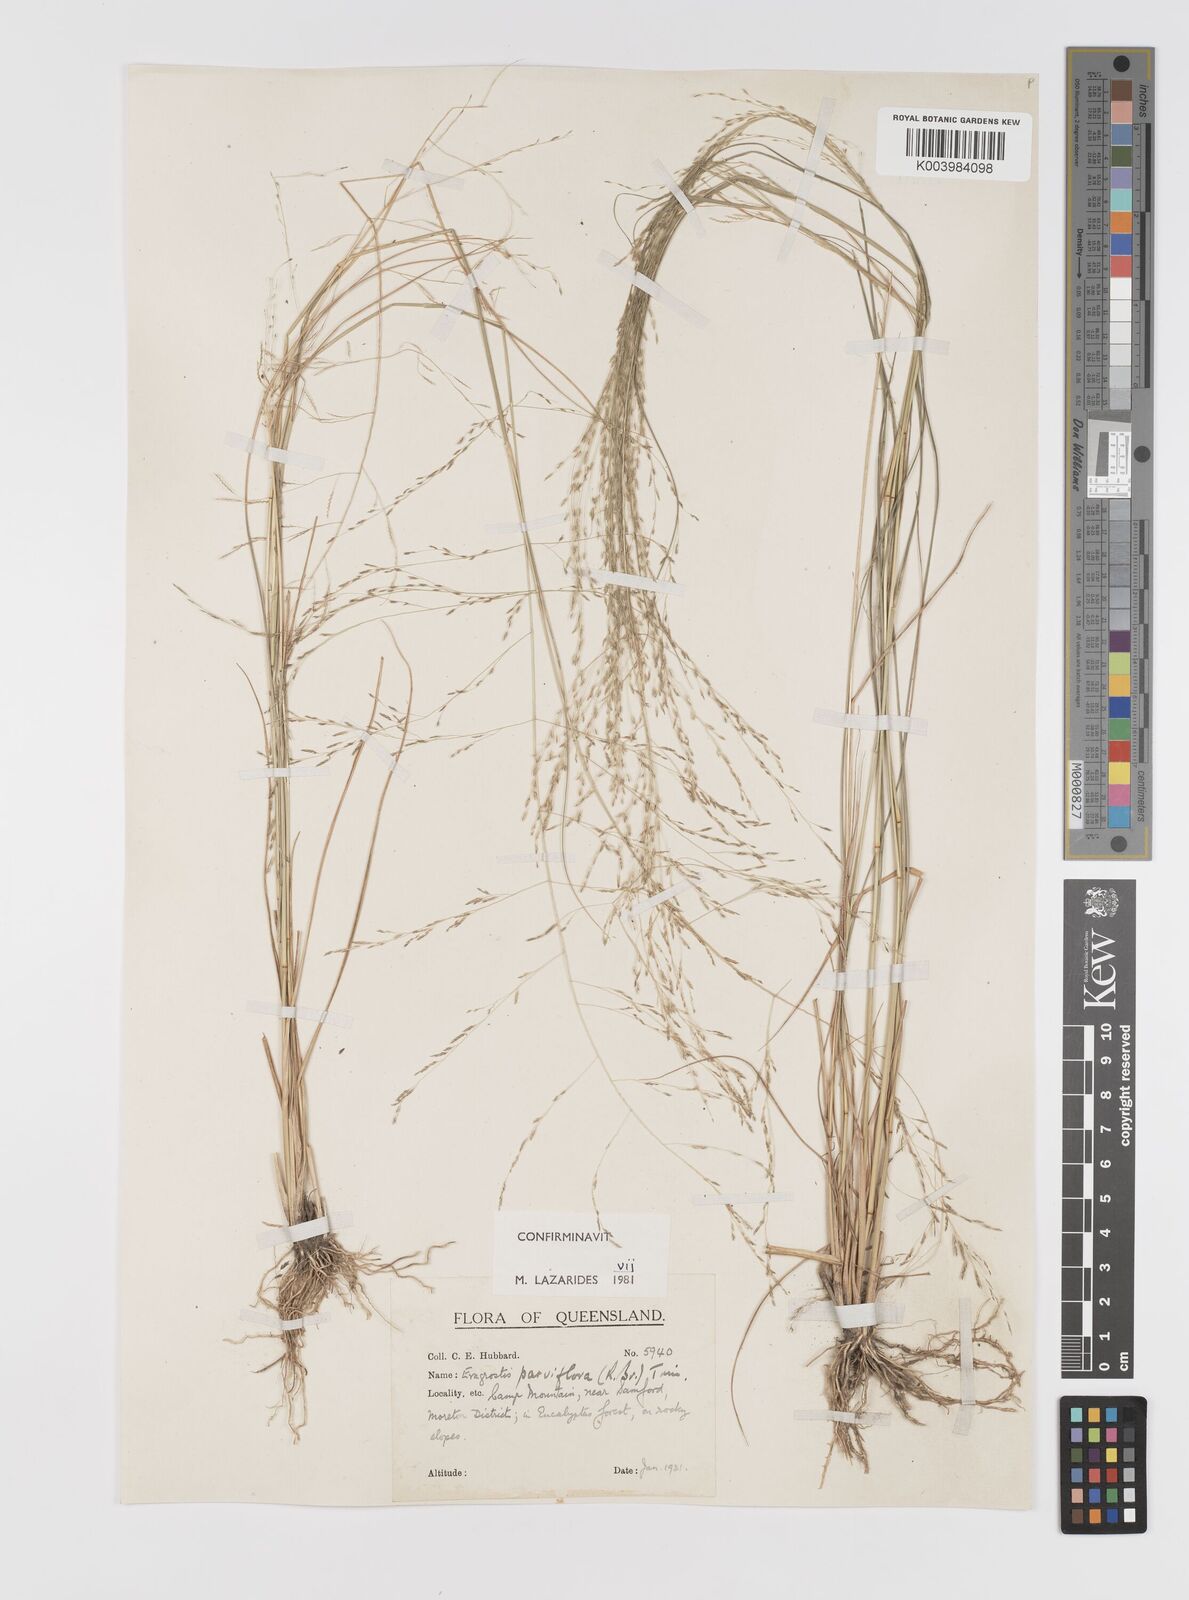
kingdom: Plantae
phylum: Tracheophyta
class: Liliopsida
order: Poales
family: Poaceae
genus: Eragrostis
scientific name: Eragrostis parviflora
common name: Weeping love-grass
